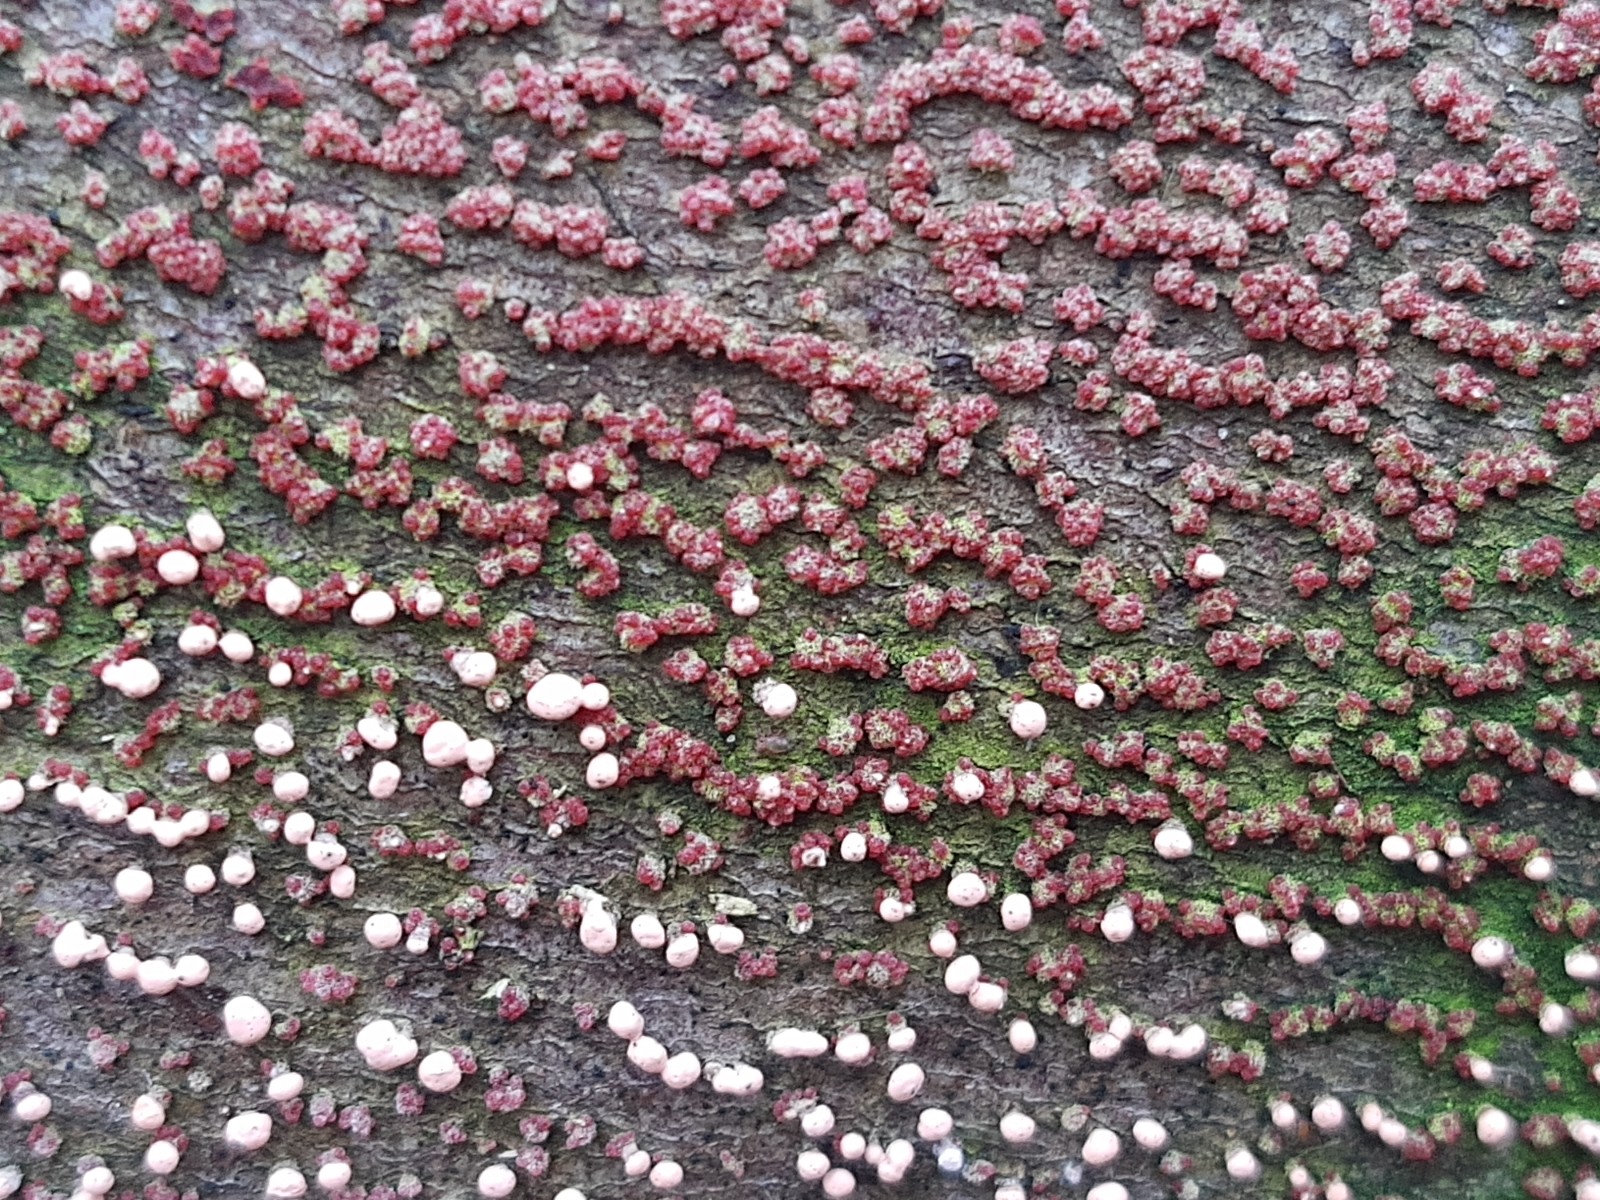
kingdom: Fungi
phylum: Ascomycota
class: Sordariomycetes
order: Hypocreales
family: Nectriaceae
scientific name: Nectriaceae
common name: cinnobersvampfamilien
